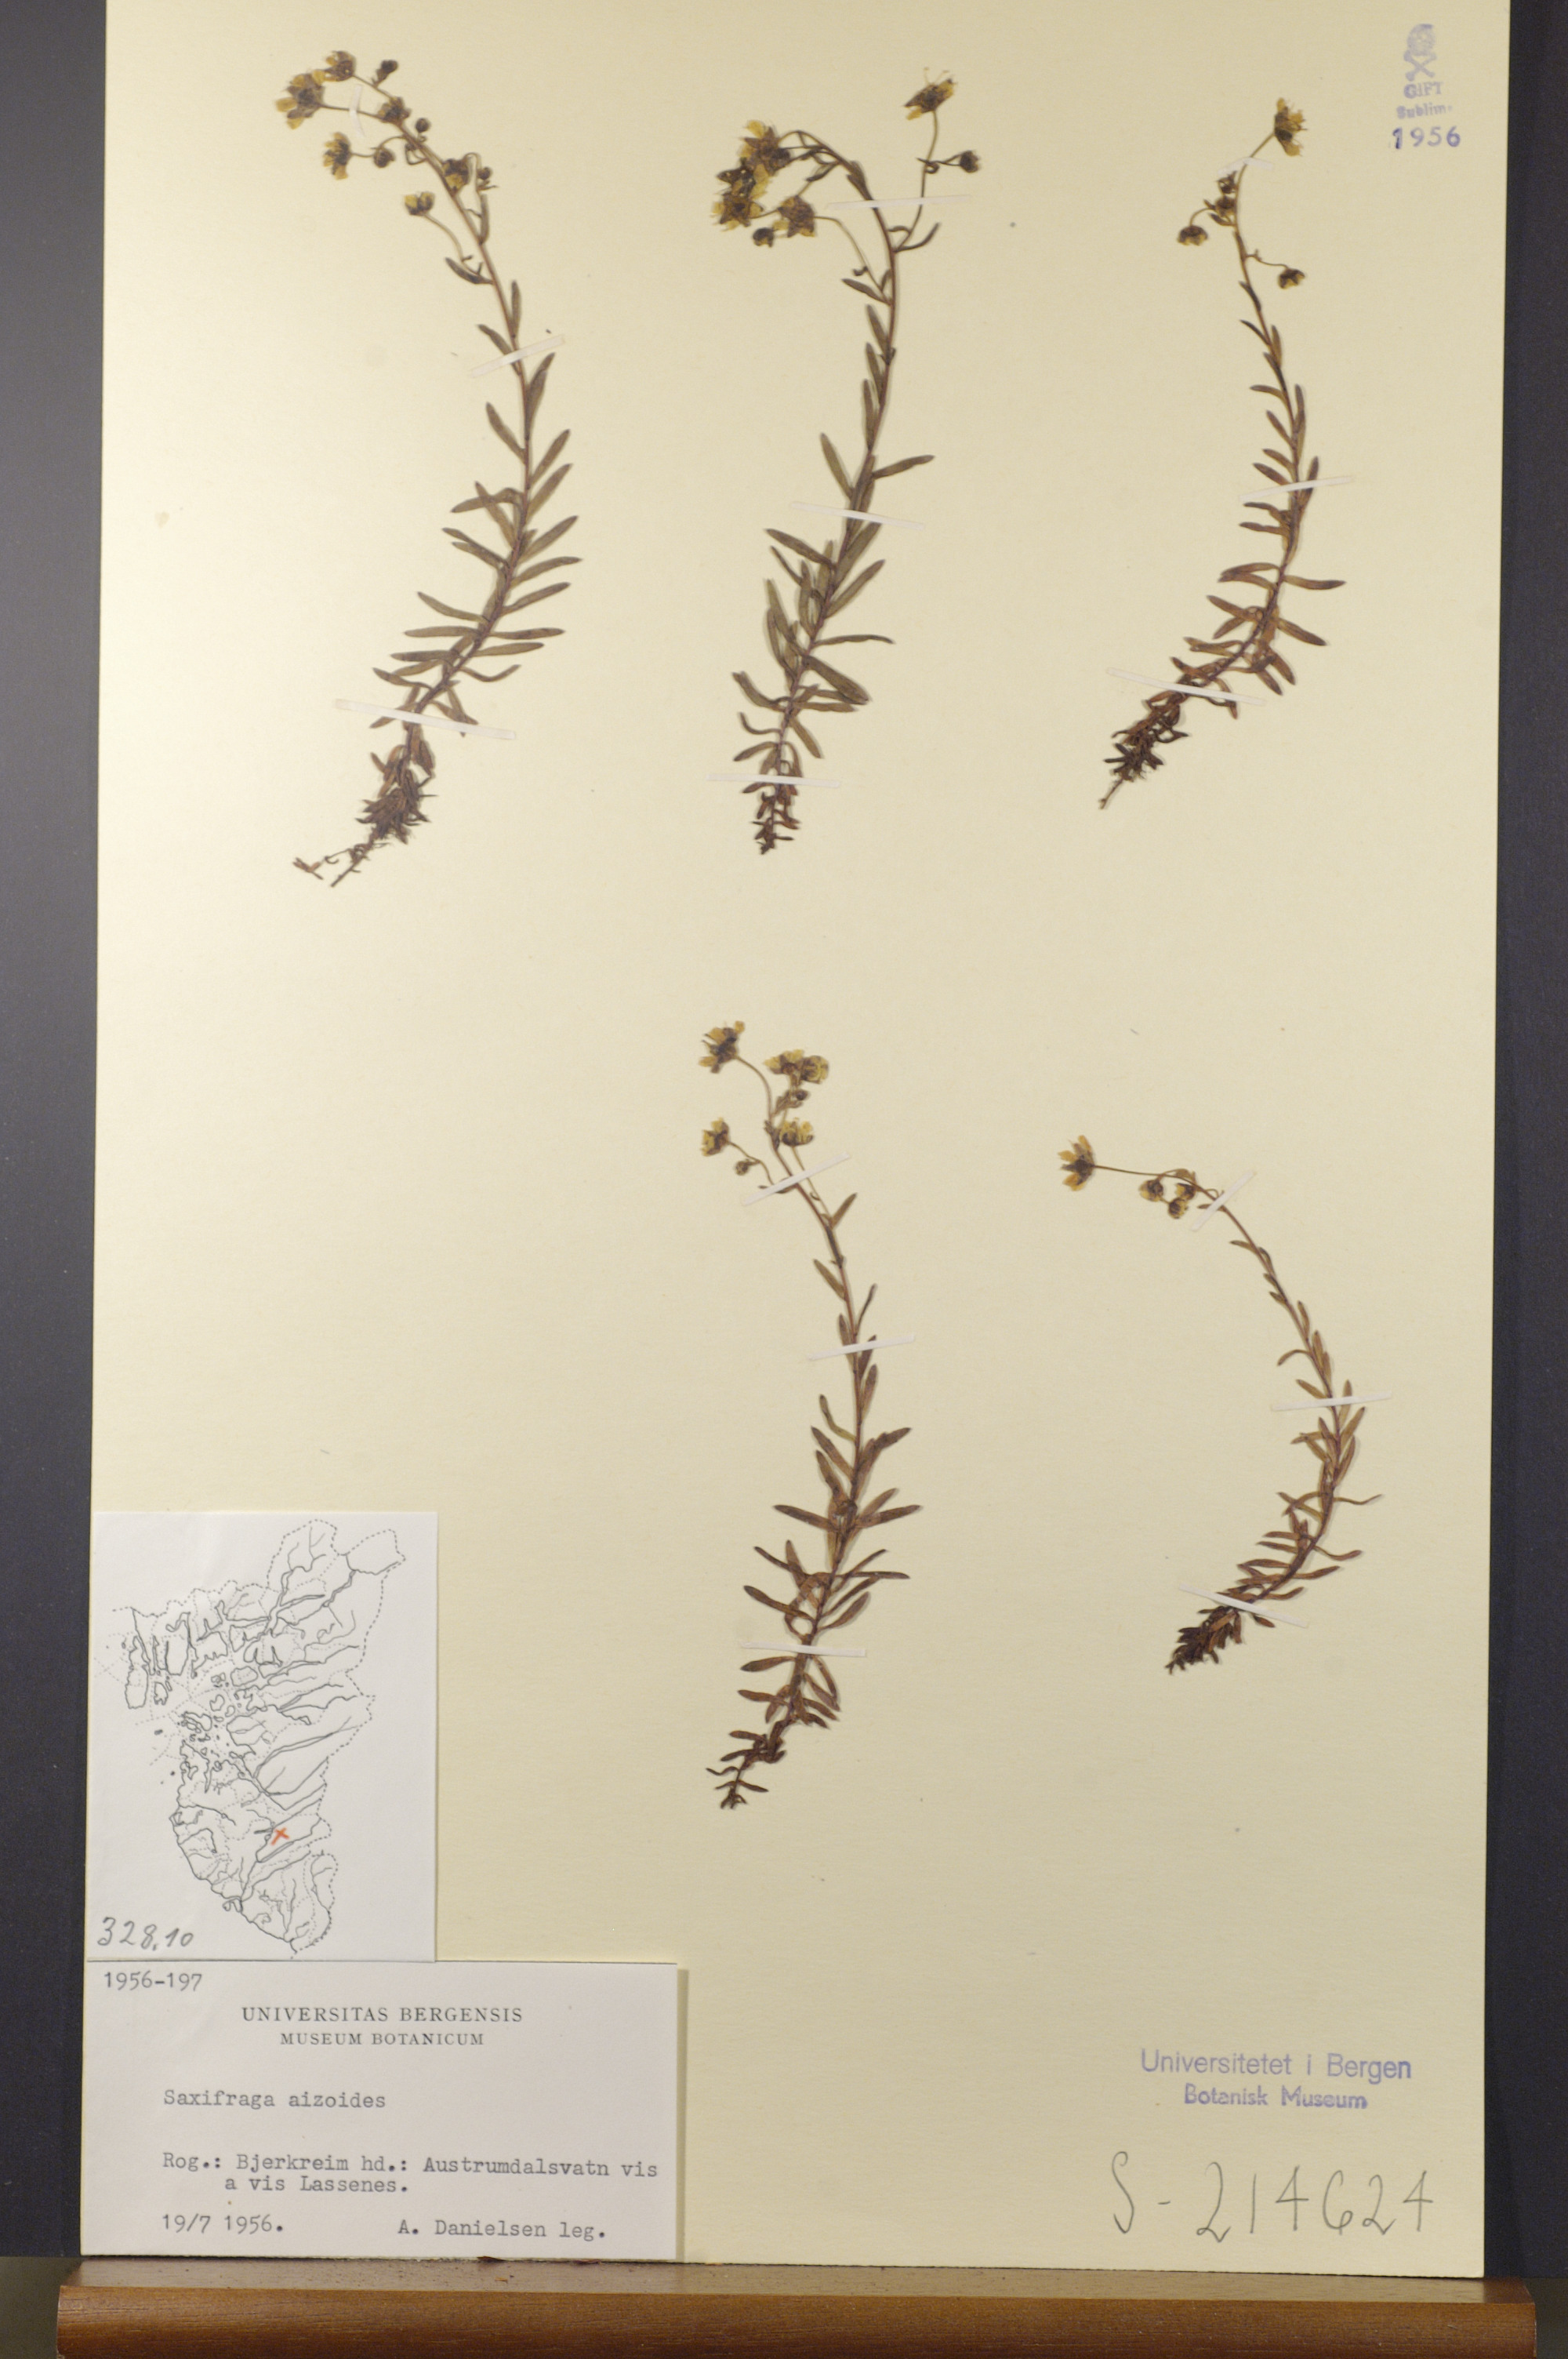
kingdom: Plantae
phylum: Tracheophyta
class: Magnoliopsida
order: Saxifragales
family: Saxifragaceae
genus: Saxifraga
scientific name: Saxifraga aizoides
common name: Yellow mountain saxifrage
